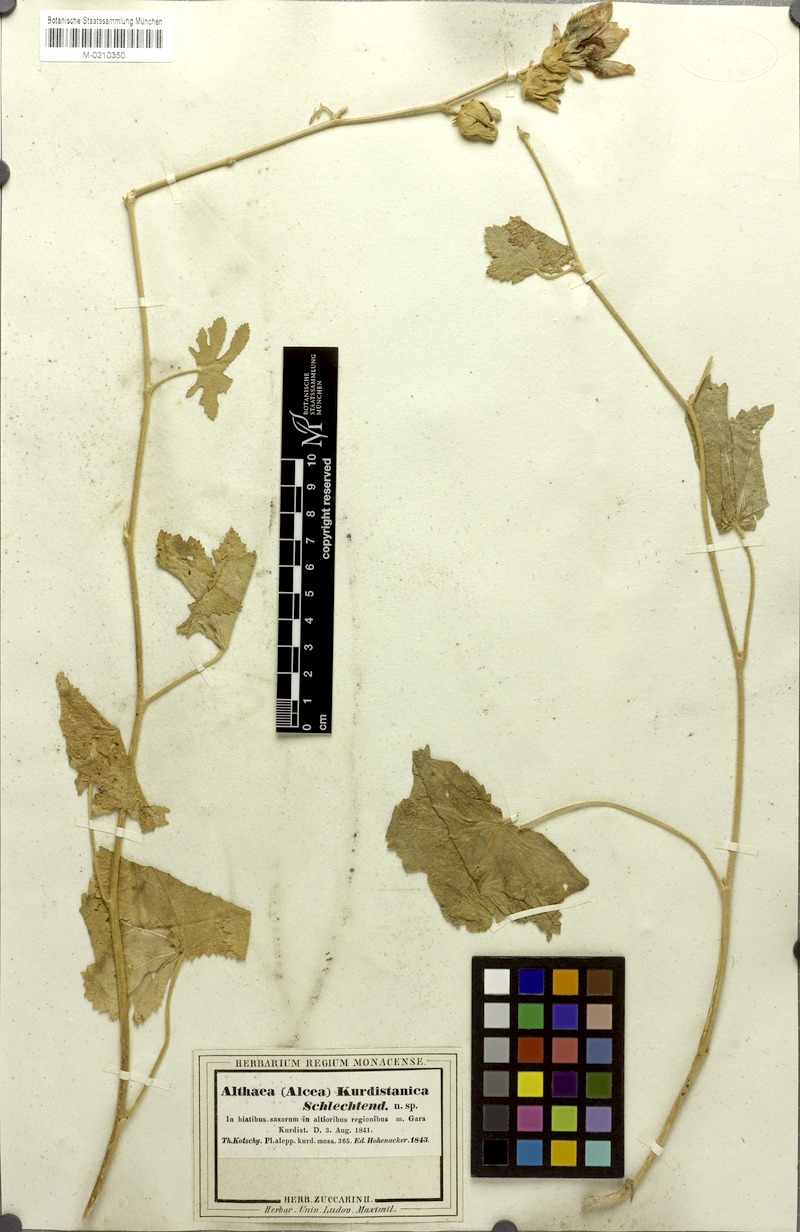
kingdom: Plantae
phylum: Tracheophyta
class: Magnoliopsida
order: Malvales
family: Malvaceae
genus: Alcea
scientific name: Alcea kurdica
